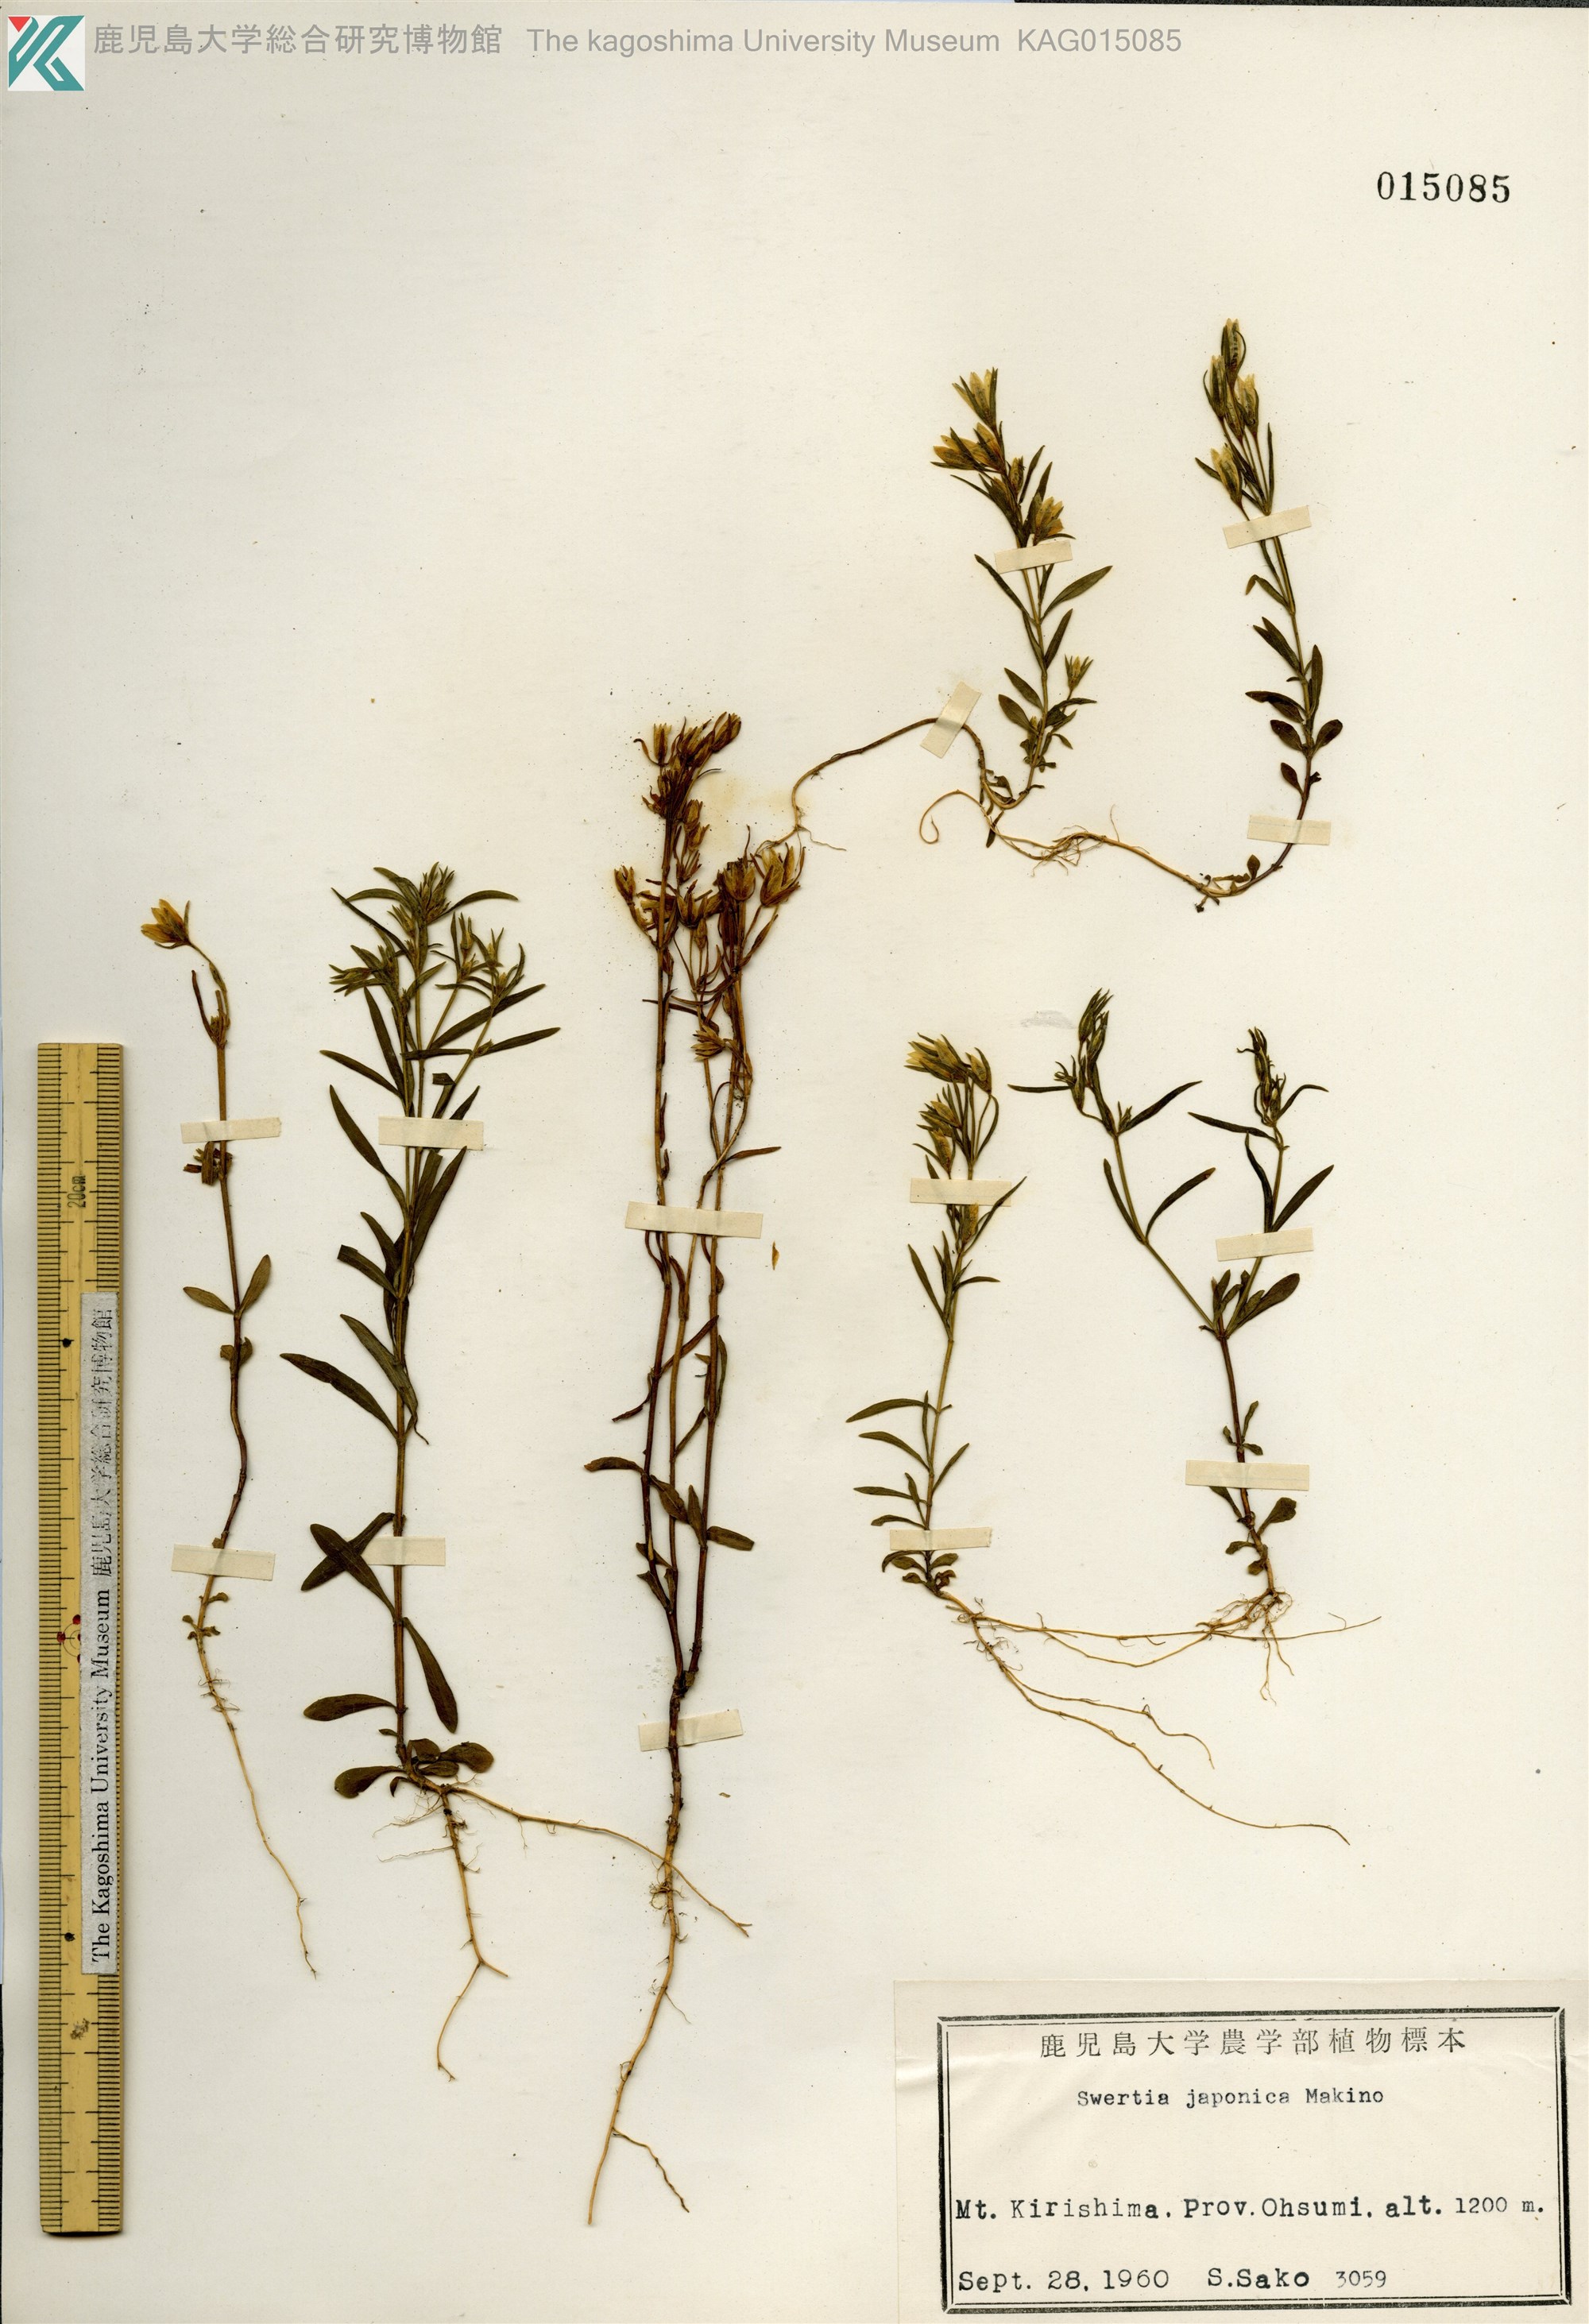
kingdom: Plantae
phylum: Tracheophyta
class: Magnoliopsida
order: Gentianales
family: Gentianaceae
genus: Swertia
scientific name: Swertia japonica
